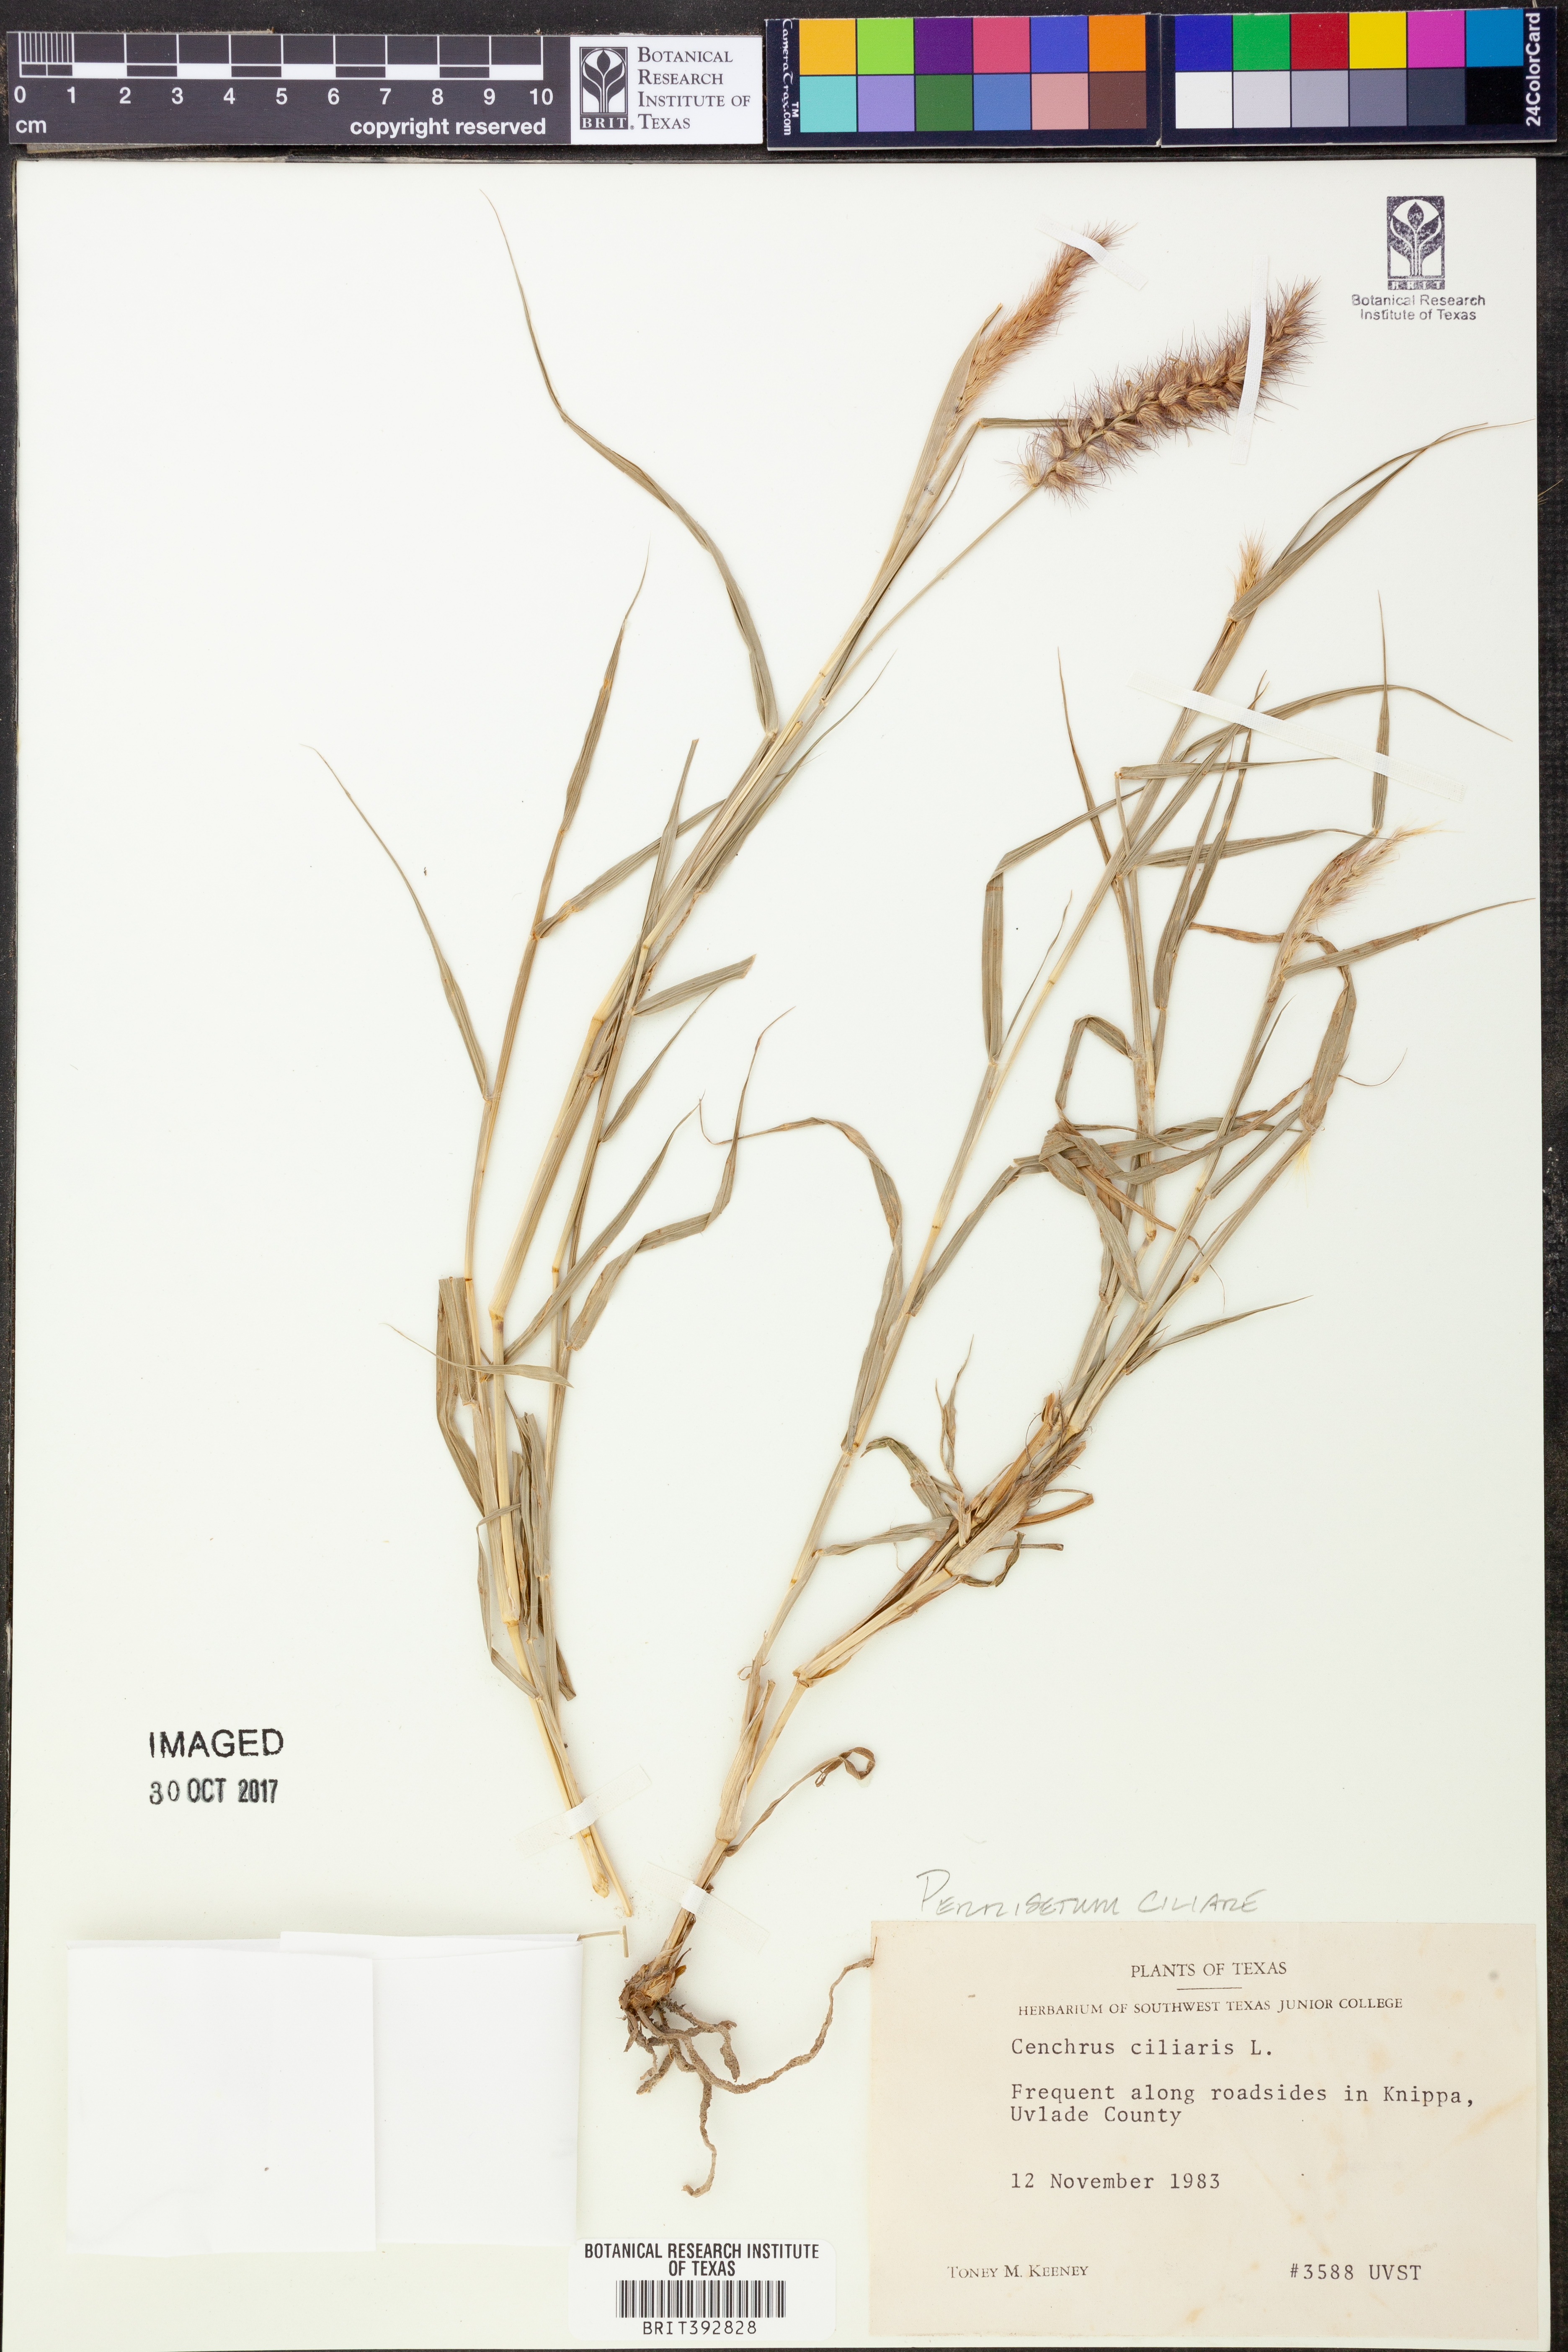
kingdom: Plantae
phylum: Tracheophyta
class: Liliopsida
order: Poales
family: Poaceae
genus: Cenchrus
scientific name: Cenchrus ciliaris
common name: Buffelgrass
